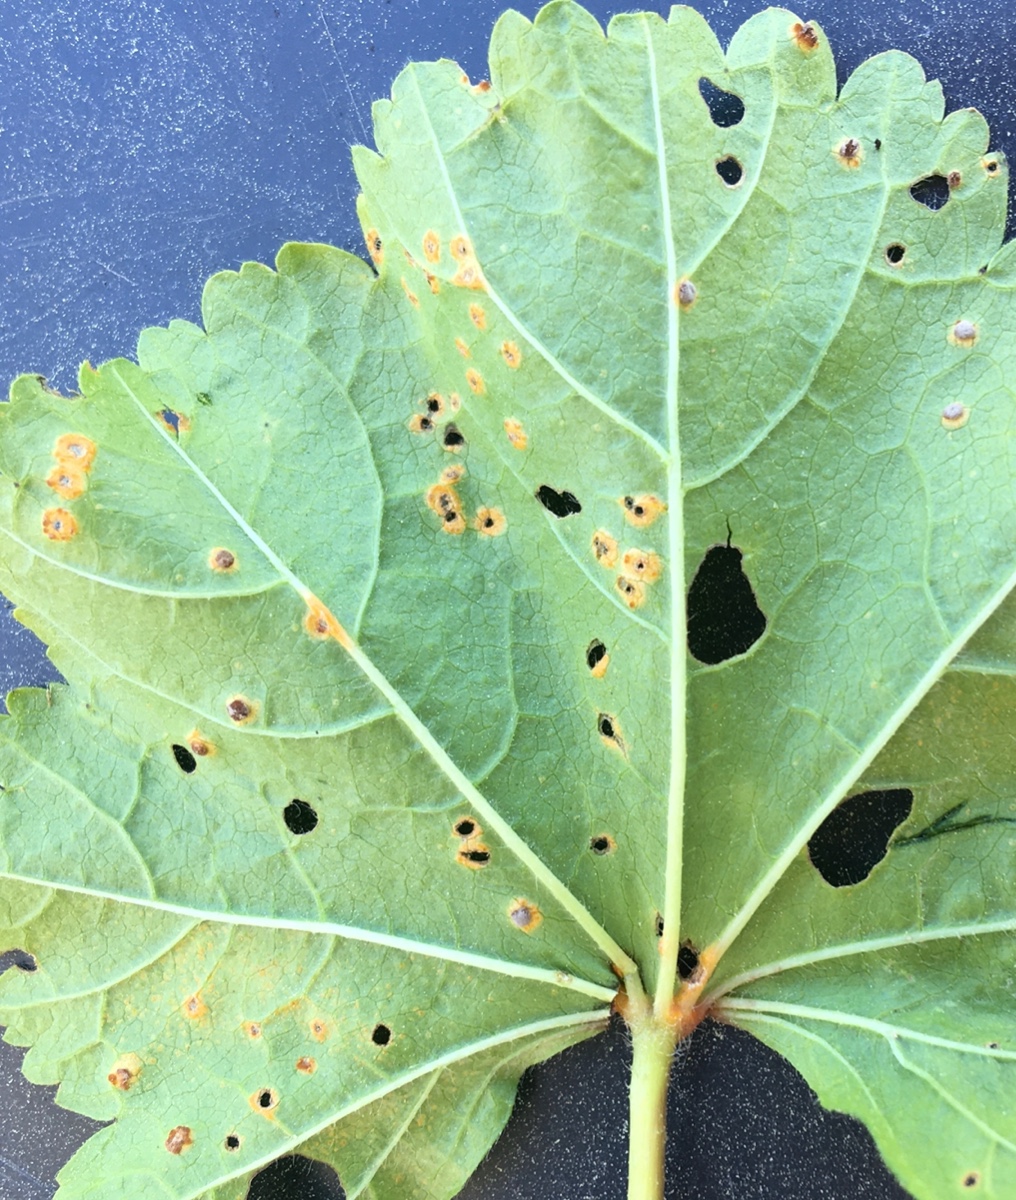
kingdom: Fungi
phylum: Basidiomycota
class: Pucciniomycetes
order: Pucciniales
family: Pucciniaceae
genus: Puccinia
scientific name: Puccinia malvacearum
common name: stokrose-tvecellerust
